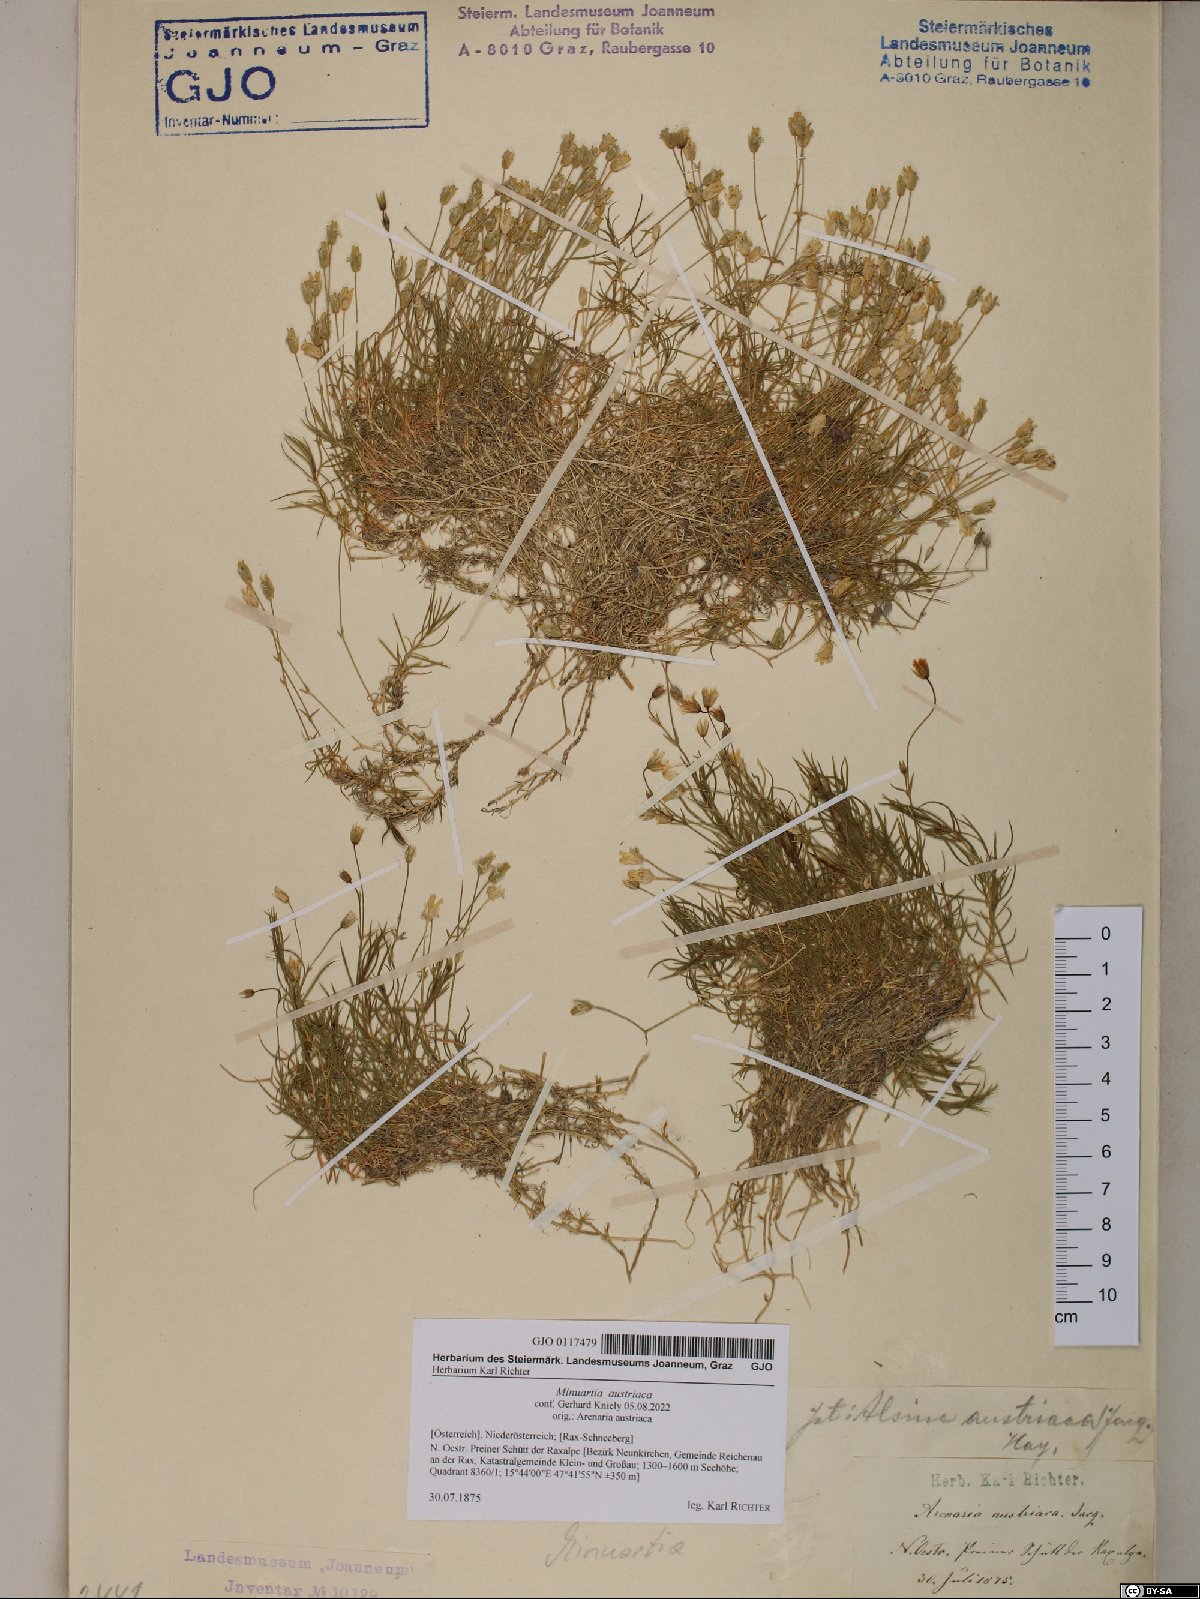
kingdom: Plantae
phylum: Tracheophyta
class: Magnoliopsida
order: Caryophyllales
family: Caryophyllaceae
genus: Sabulina
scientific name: Sabulina austriaca
